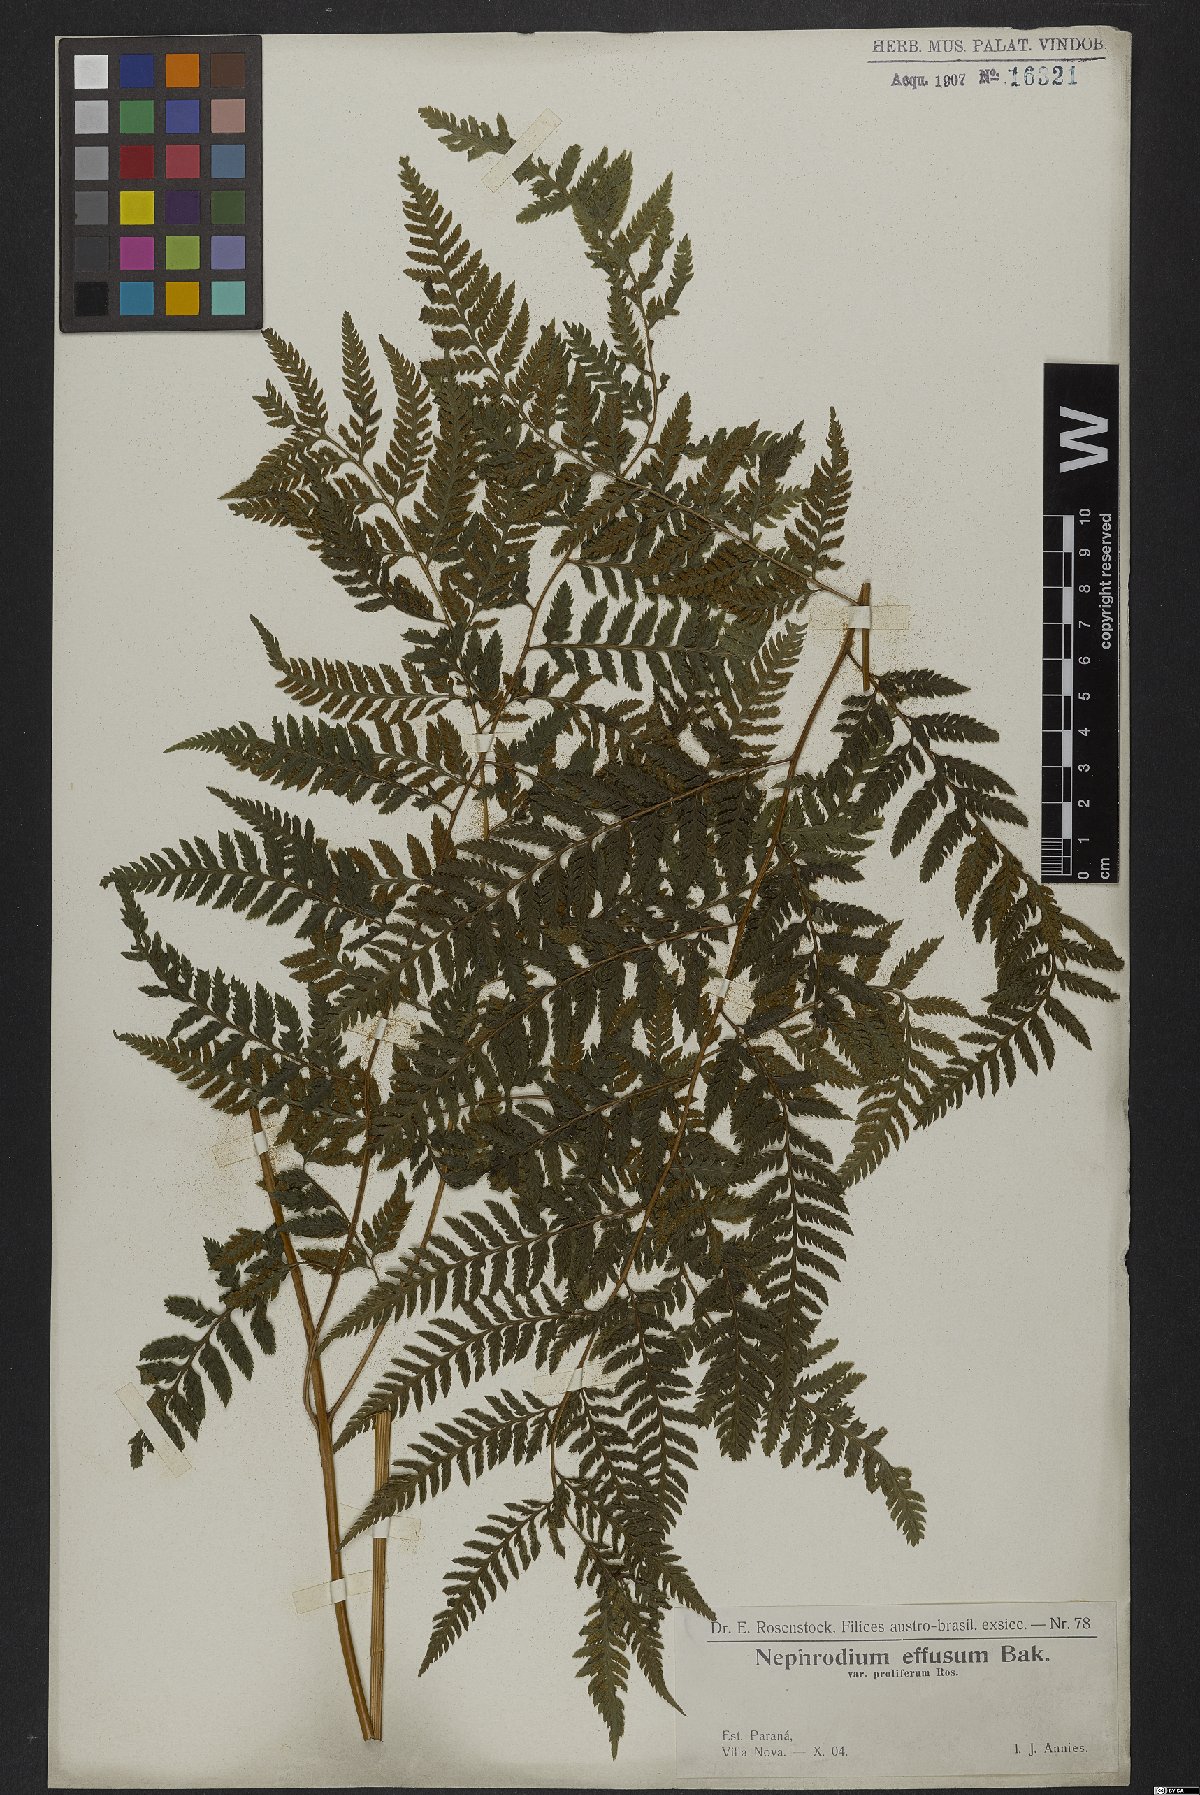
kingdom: Plantae
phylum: Tracheophyta
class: Polypodiopsida
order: Polypodiales
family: Dryopteridaceae
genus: Parapolystichum
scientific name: Parapolystichum effusum
